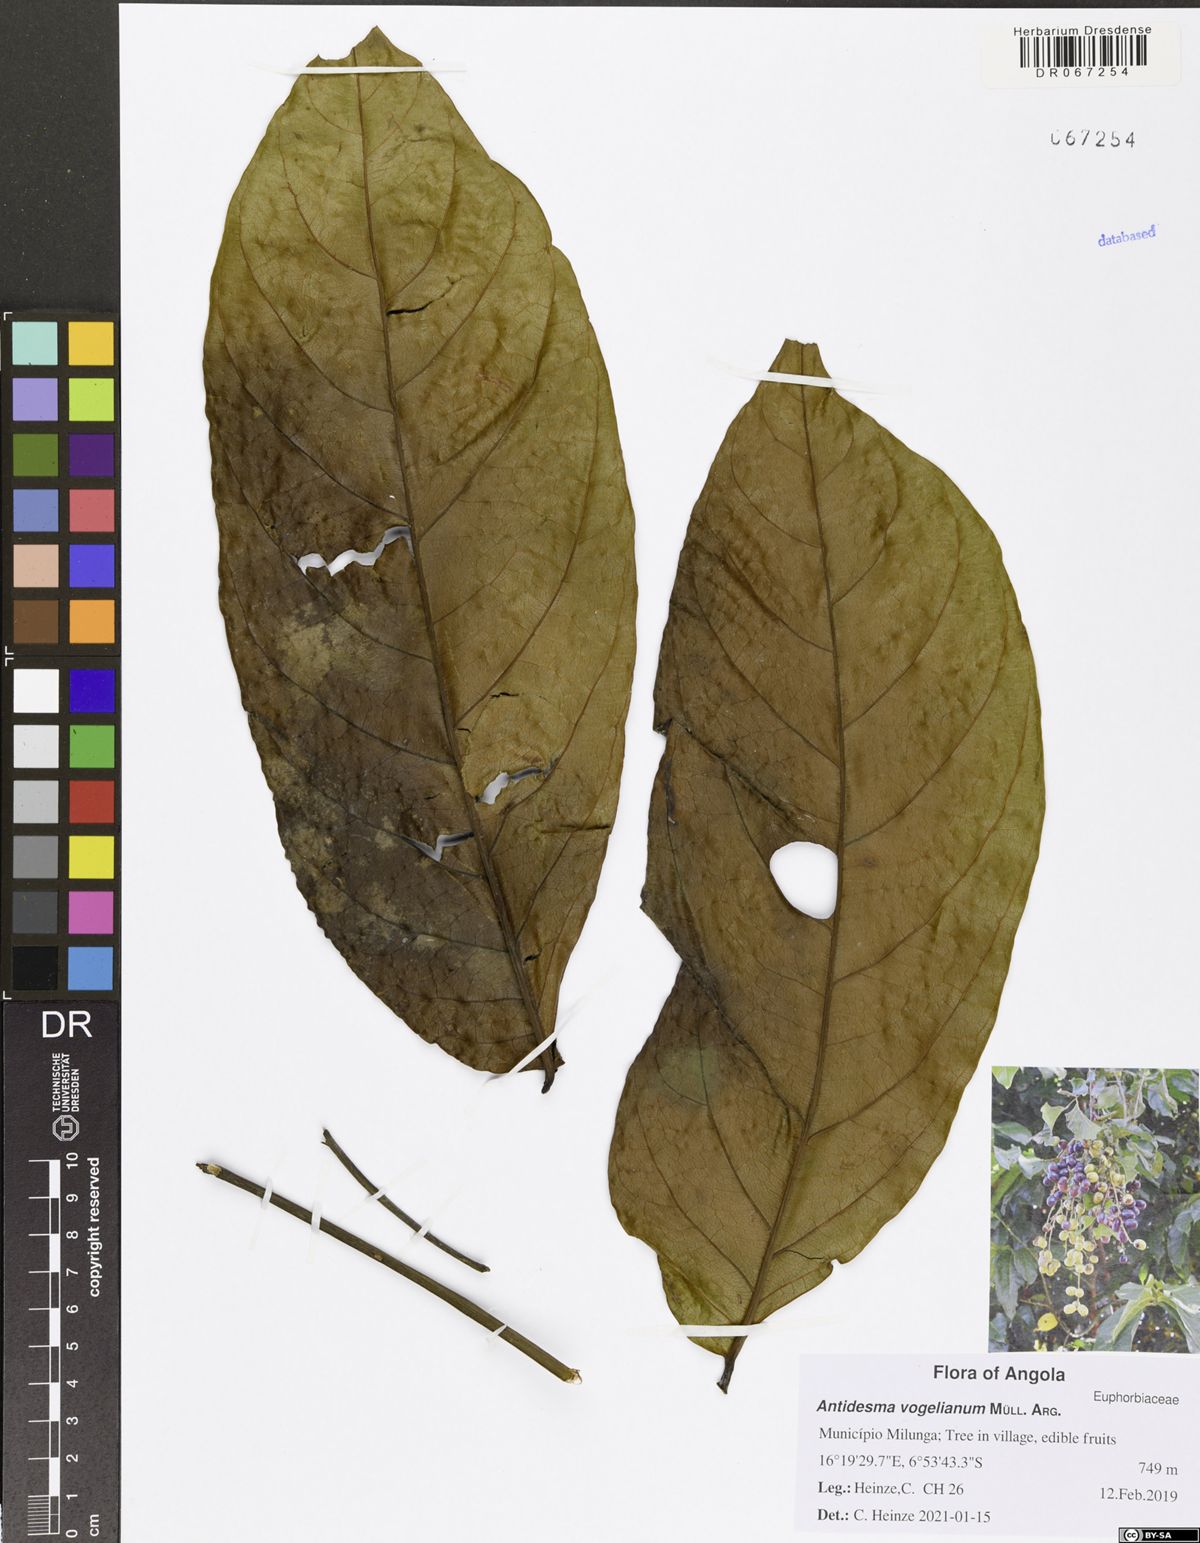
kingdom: Plantae
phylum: Tracheophyta
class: Magnoliopsida
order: Sapindales
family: Anacardiaceae
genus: Pseudospondias
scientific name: Pseudospondias microcarpa
